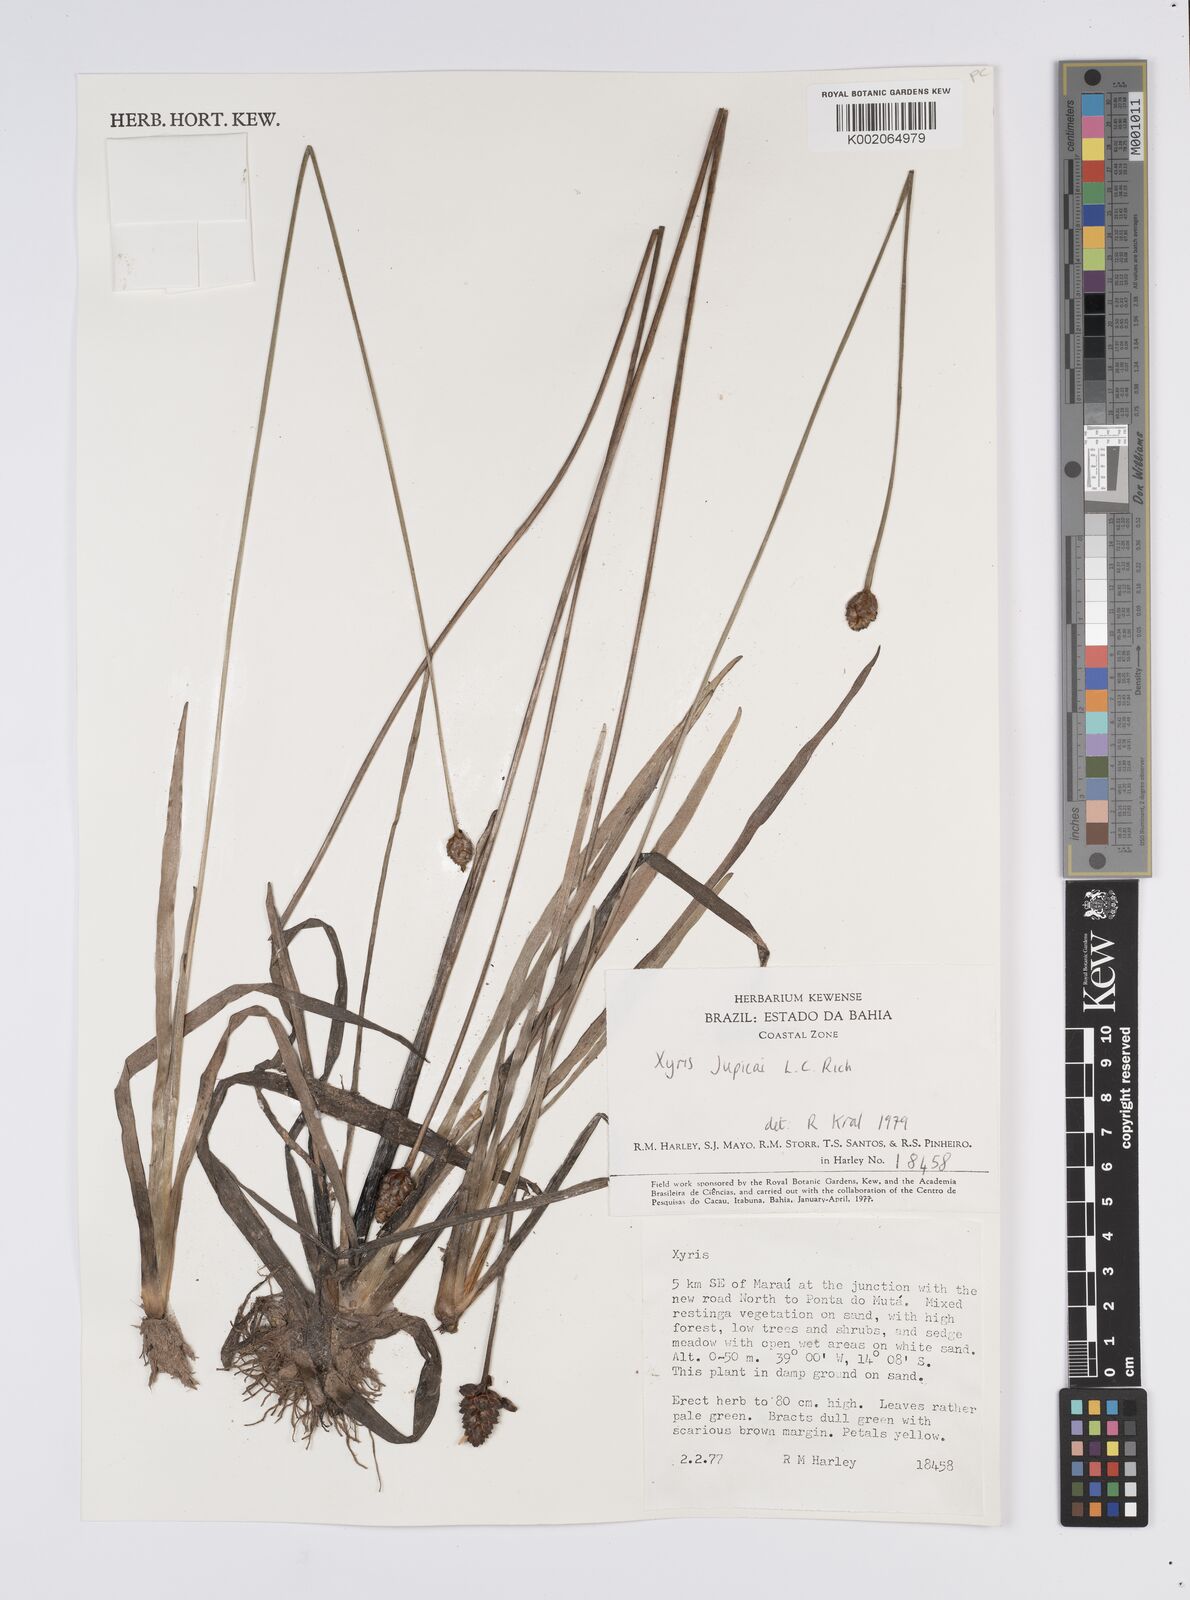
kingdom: Plantae
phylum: Tracheophyta
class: Liliopsida
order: Poales
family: Xyridaceae
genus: Xyris
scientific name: Xyris jupicai
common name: Richard's yelloweyed grass
